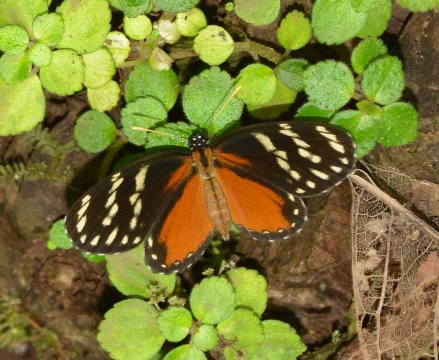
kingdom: Animalia
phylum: Arthropoda
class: Insecta
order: Lepidoptera
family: Nymphalidae
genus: Eresia
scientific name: Eresia ithomioides
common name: Variable Crescent
